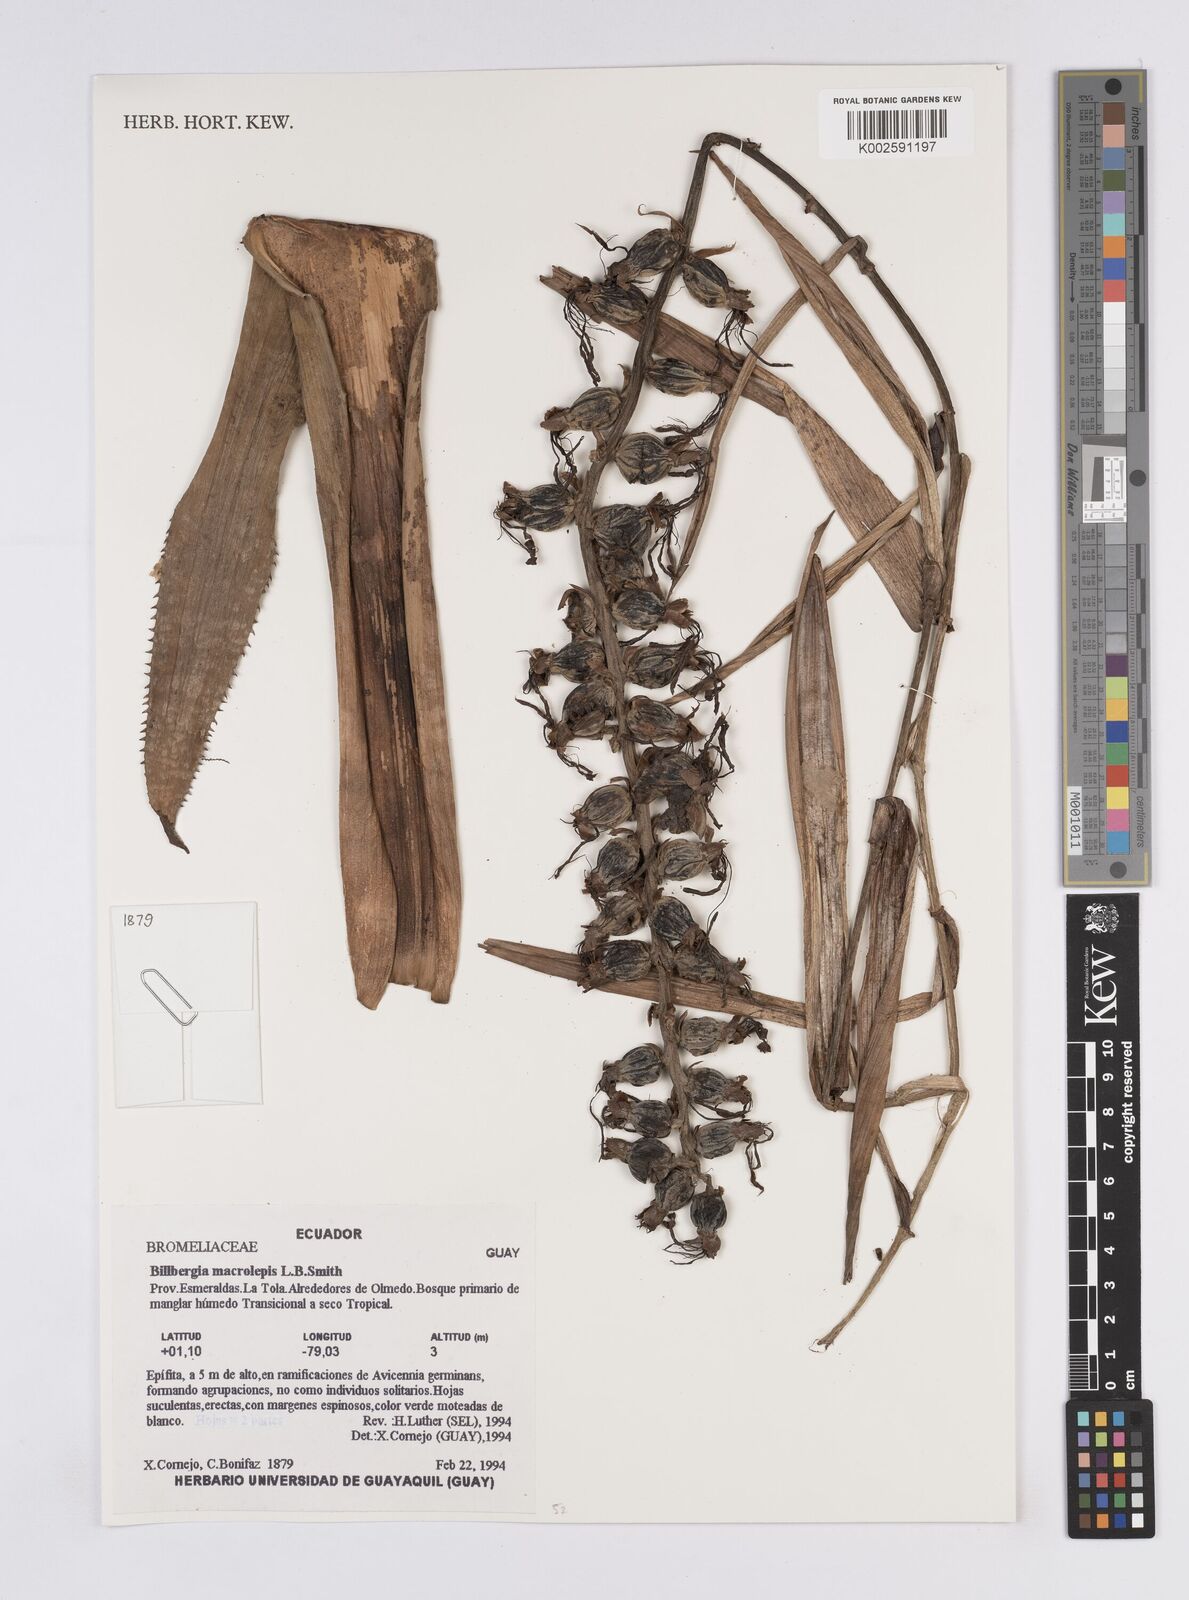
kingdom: Plantae
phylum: Tracheophyta
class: Liliopsida
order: Poales
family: Bromeliaceae
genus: Billbergia
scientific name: Billbergia macrolepis
